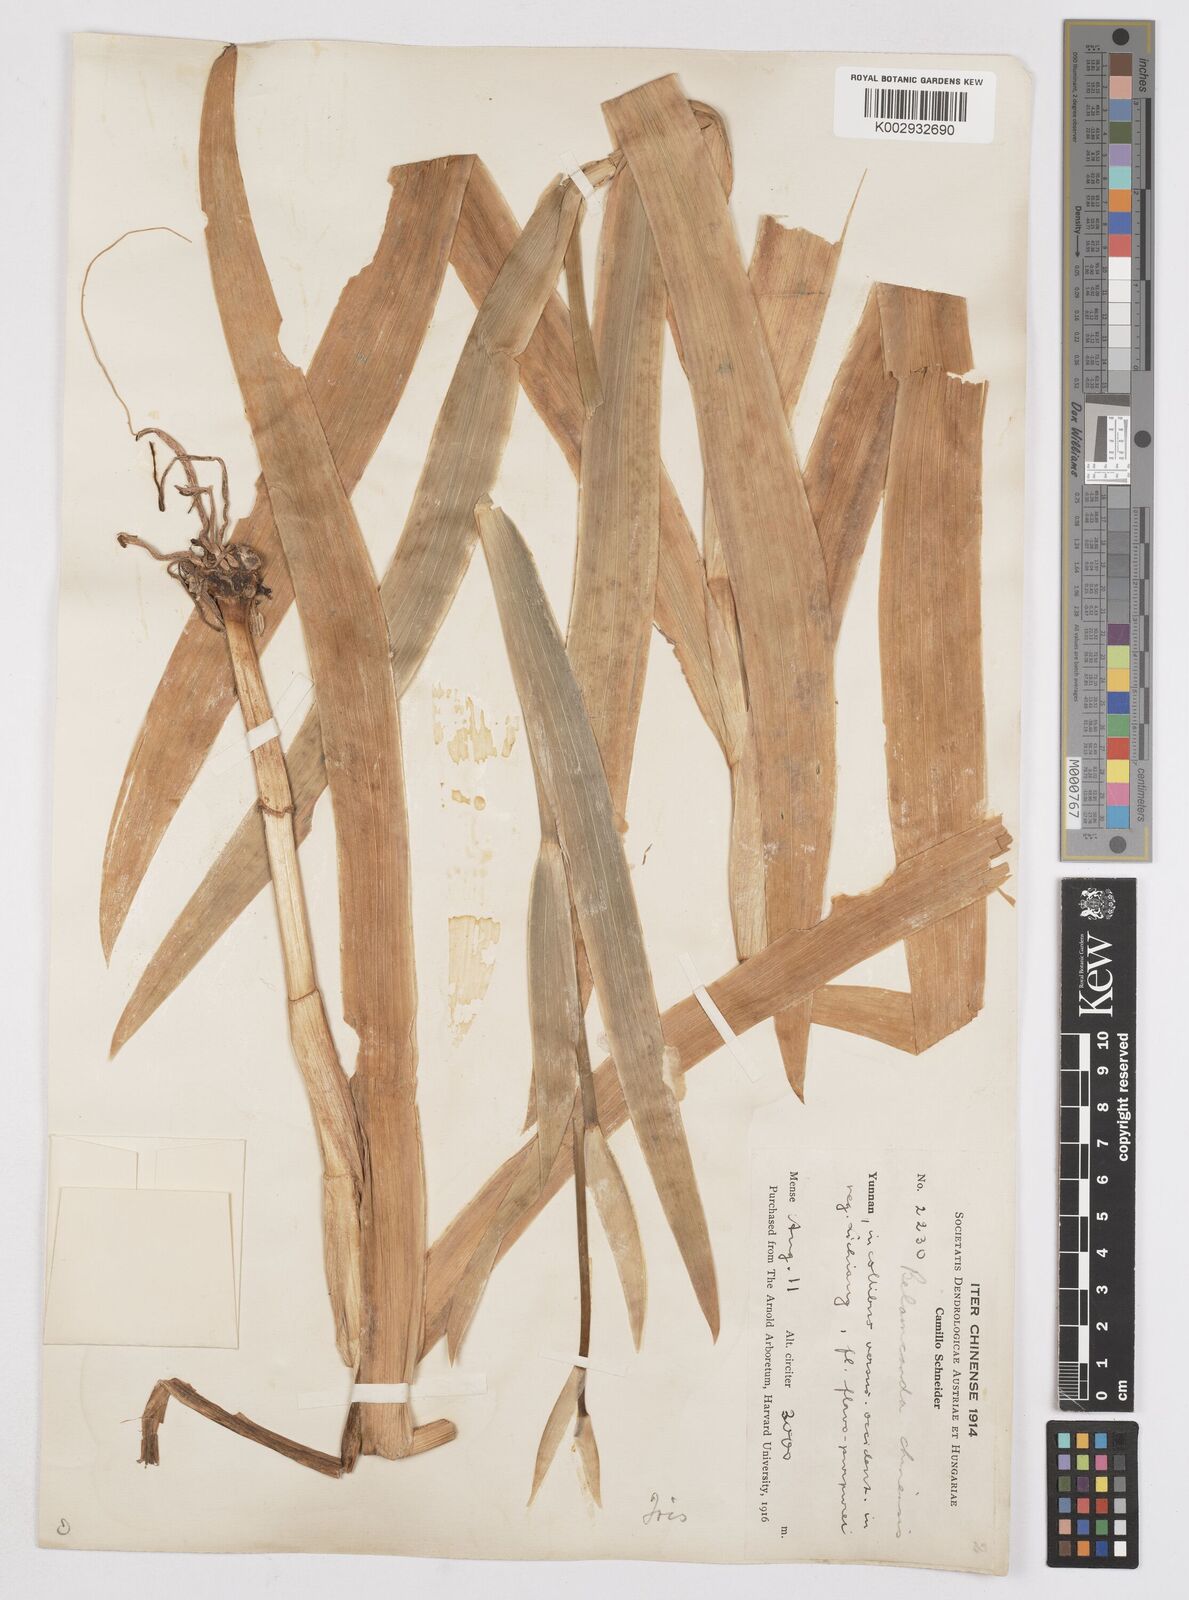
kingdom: Plantae
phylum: Tracheophyta
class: Liliopsida
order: Asparagales
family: Iridaceae
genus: Iris
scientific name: Iris
